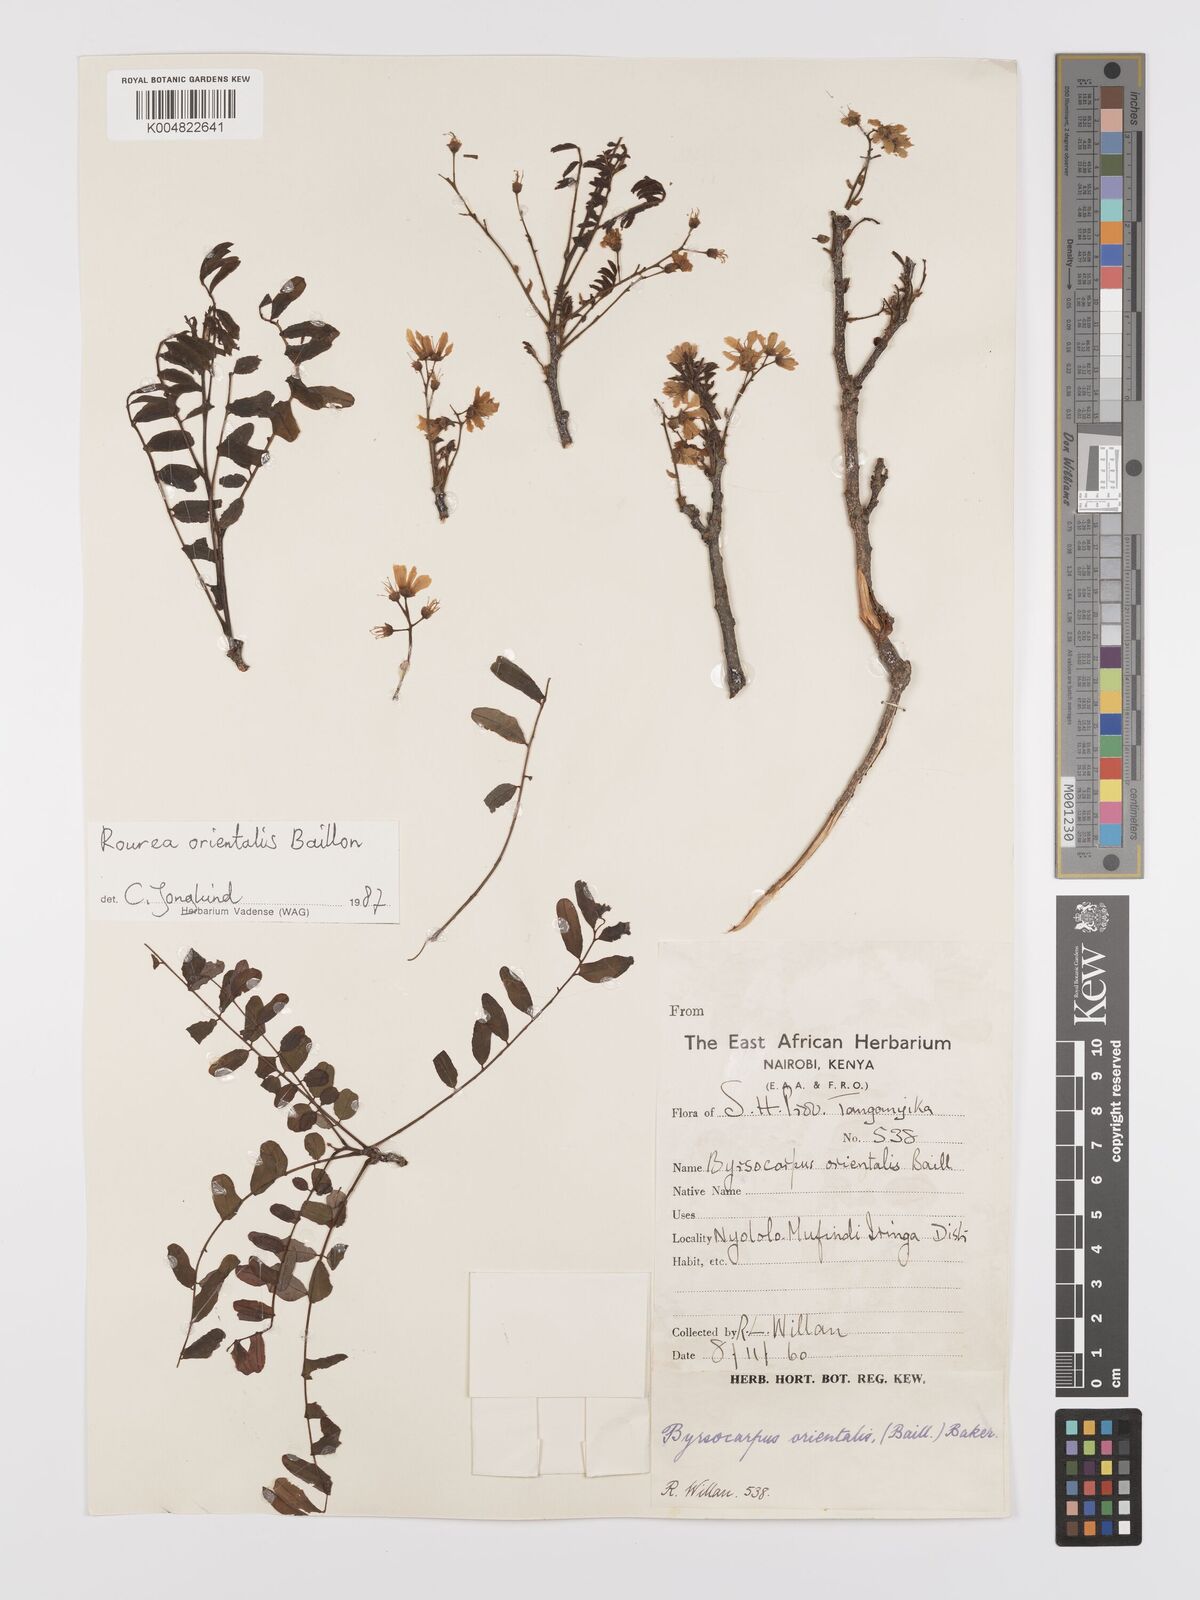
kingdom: Plantae
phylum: Tracheophyta
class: Magnoliopsida
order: Oxalidales
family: Connaraceae
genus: Rourea
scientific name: Rourea orientalis
